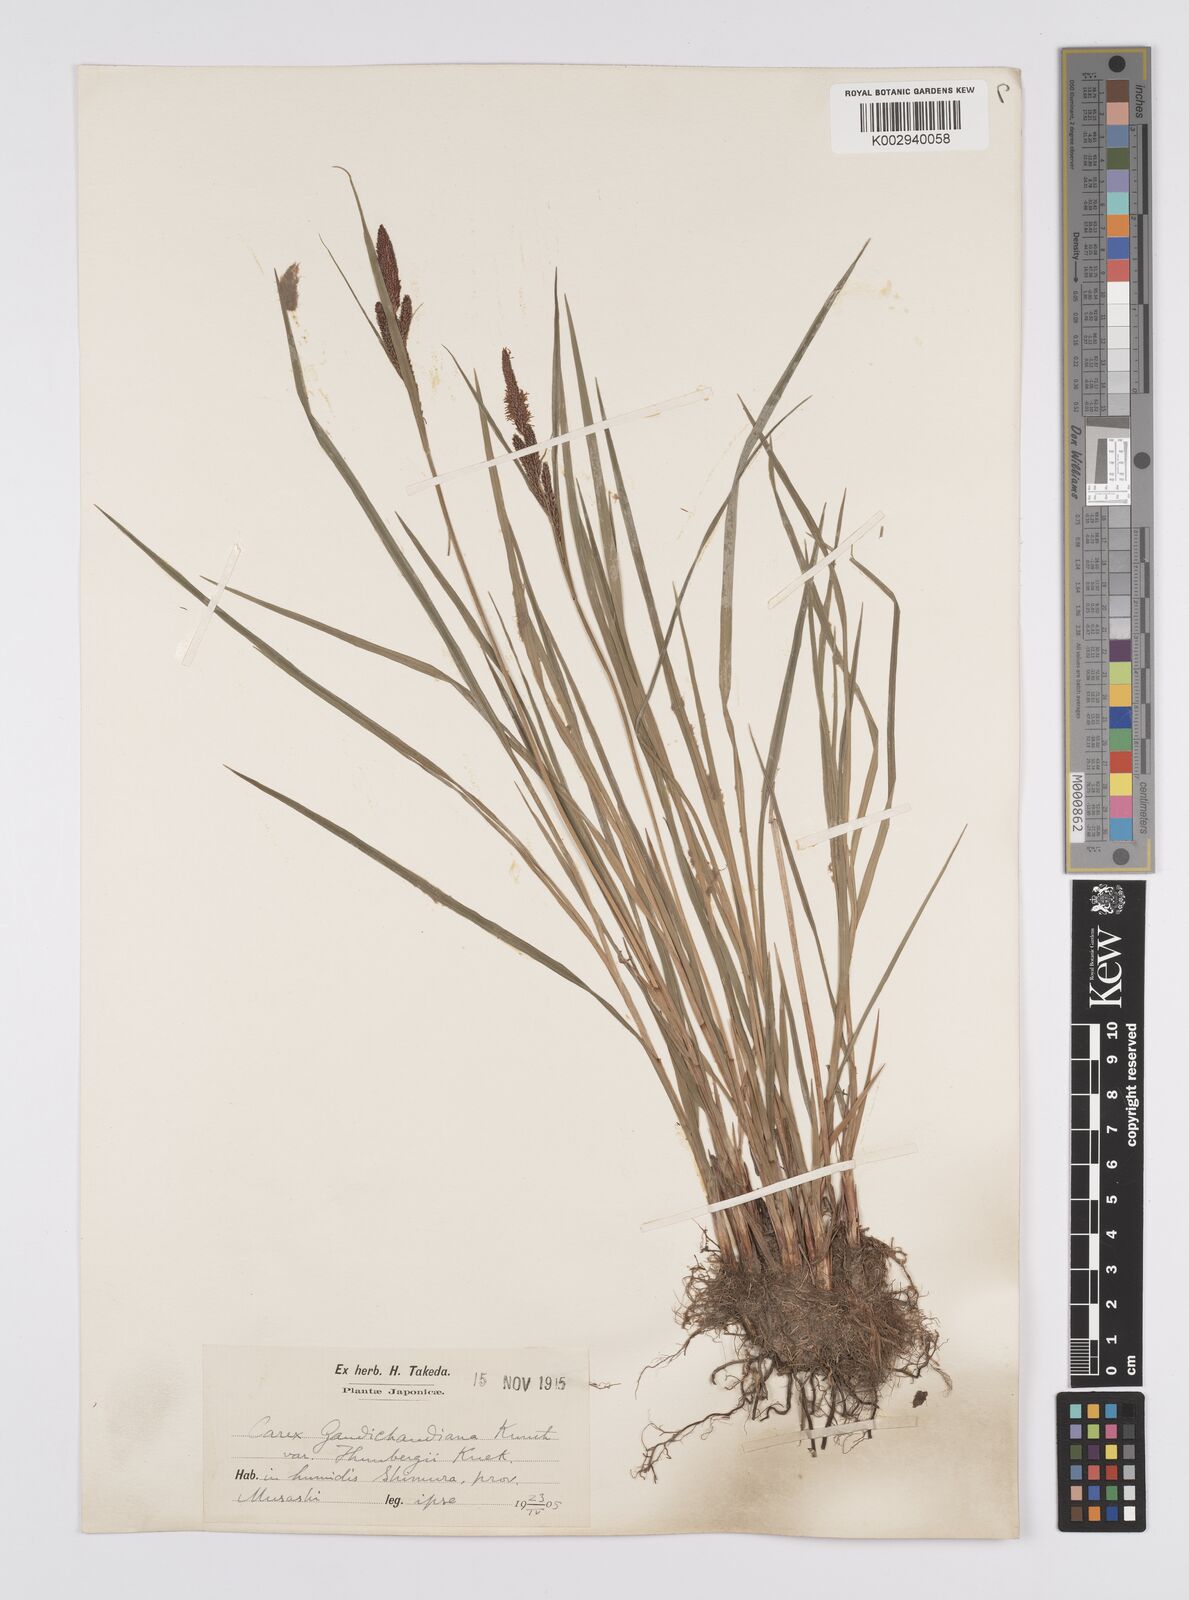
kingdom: Plantae
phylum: Tracheophyta
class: Liliopsida
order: Poales
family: Cyperaceae
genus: Carex
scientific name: Carex thunbergii
